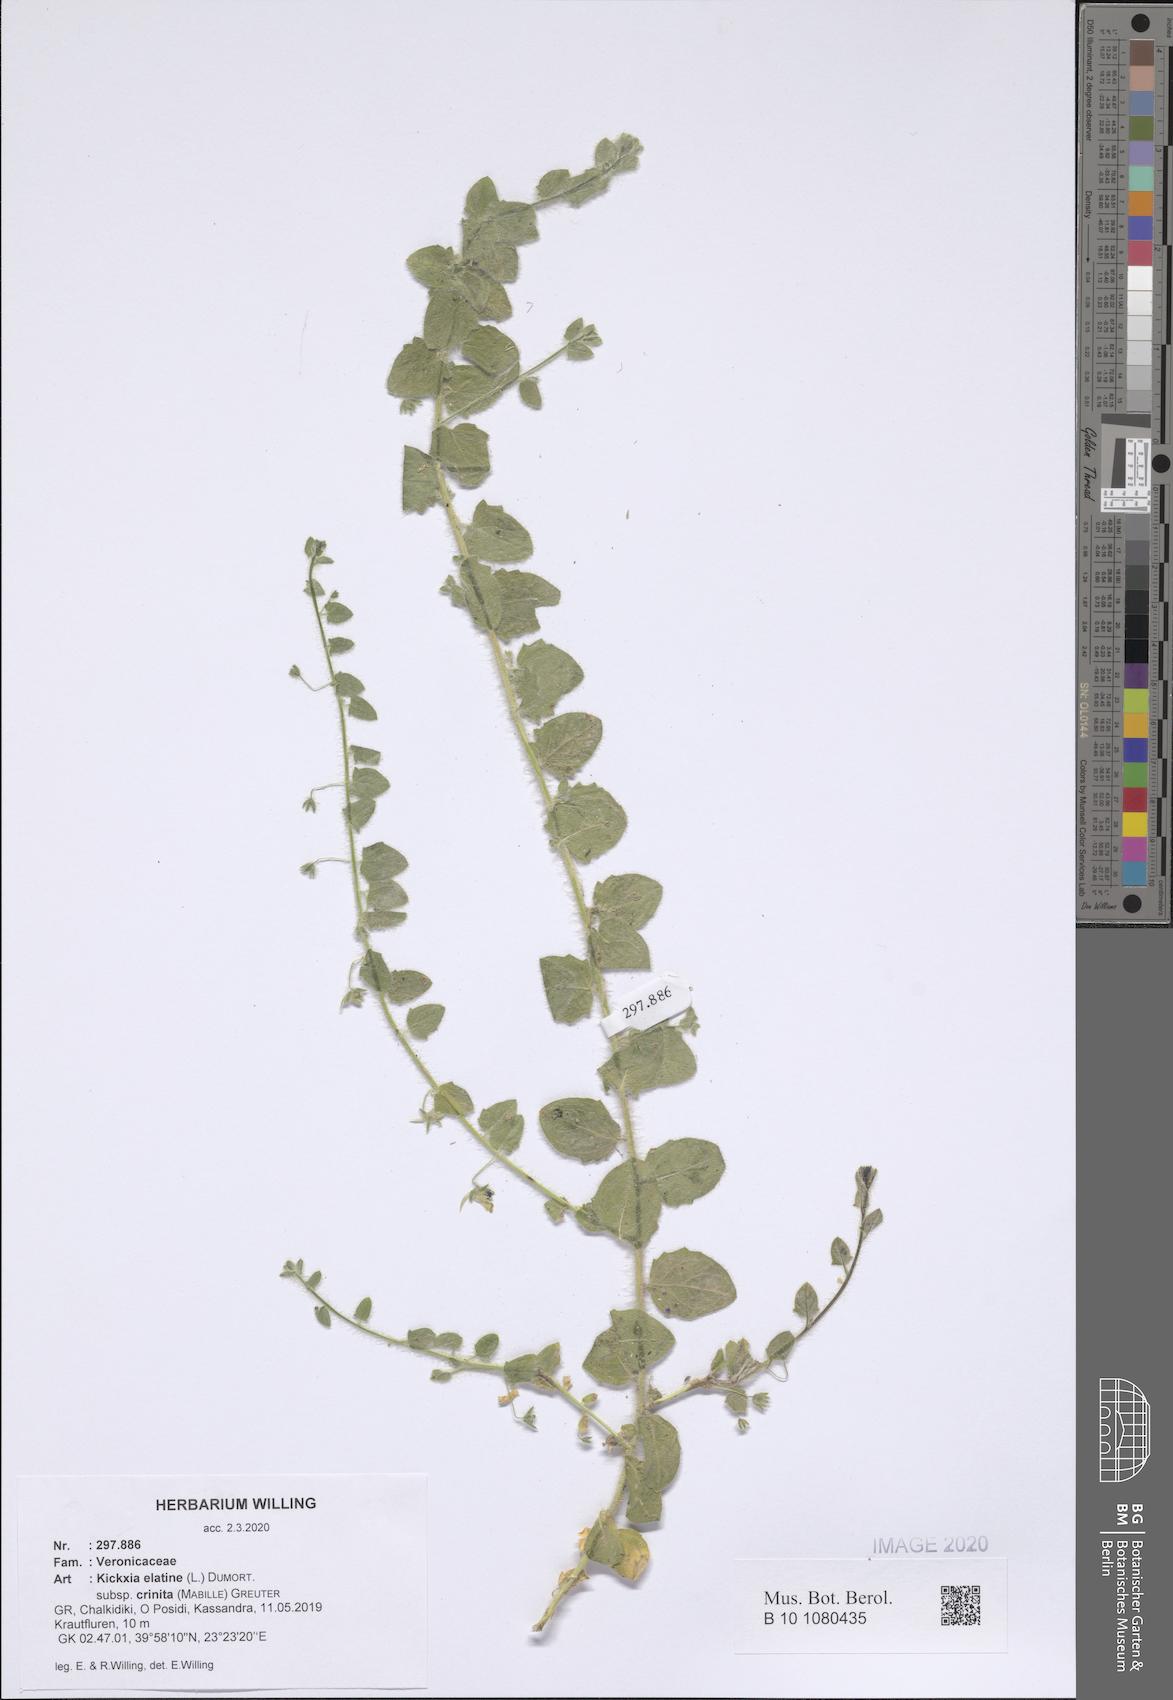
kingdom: Plantae
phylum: Tracheophyta
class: Magnoliopsida
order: Lamiales
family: Plantaginaceae
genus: Kickxia
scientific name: Kickxia elatine
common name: Sharp-leaved fluellen
